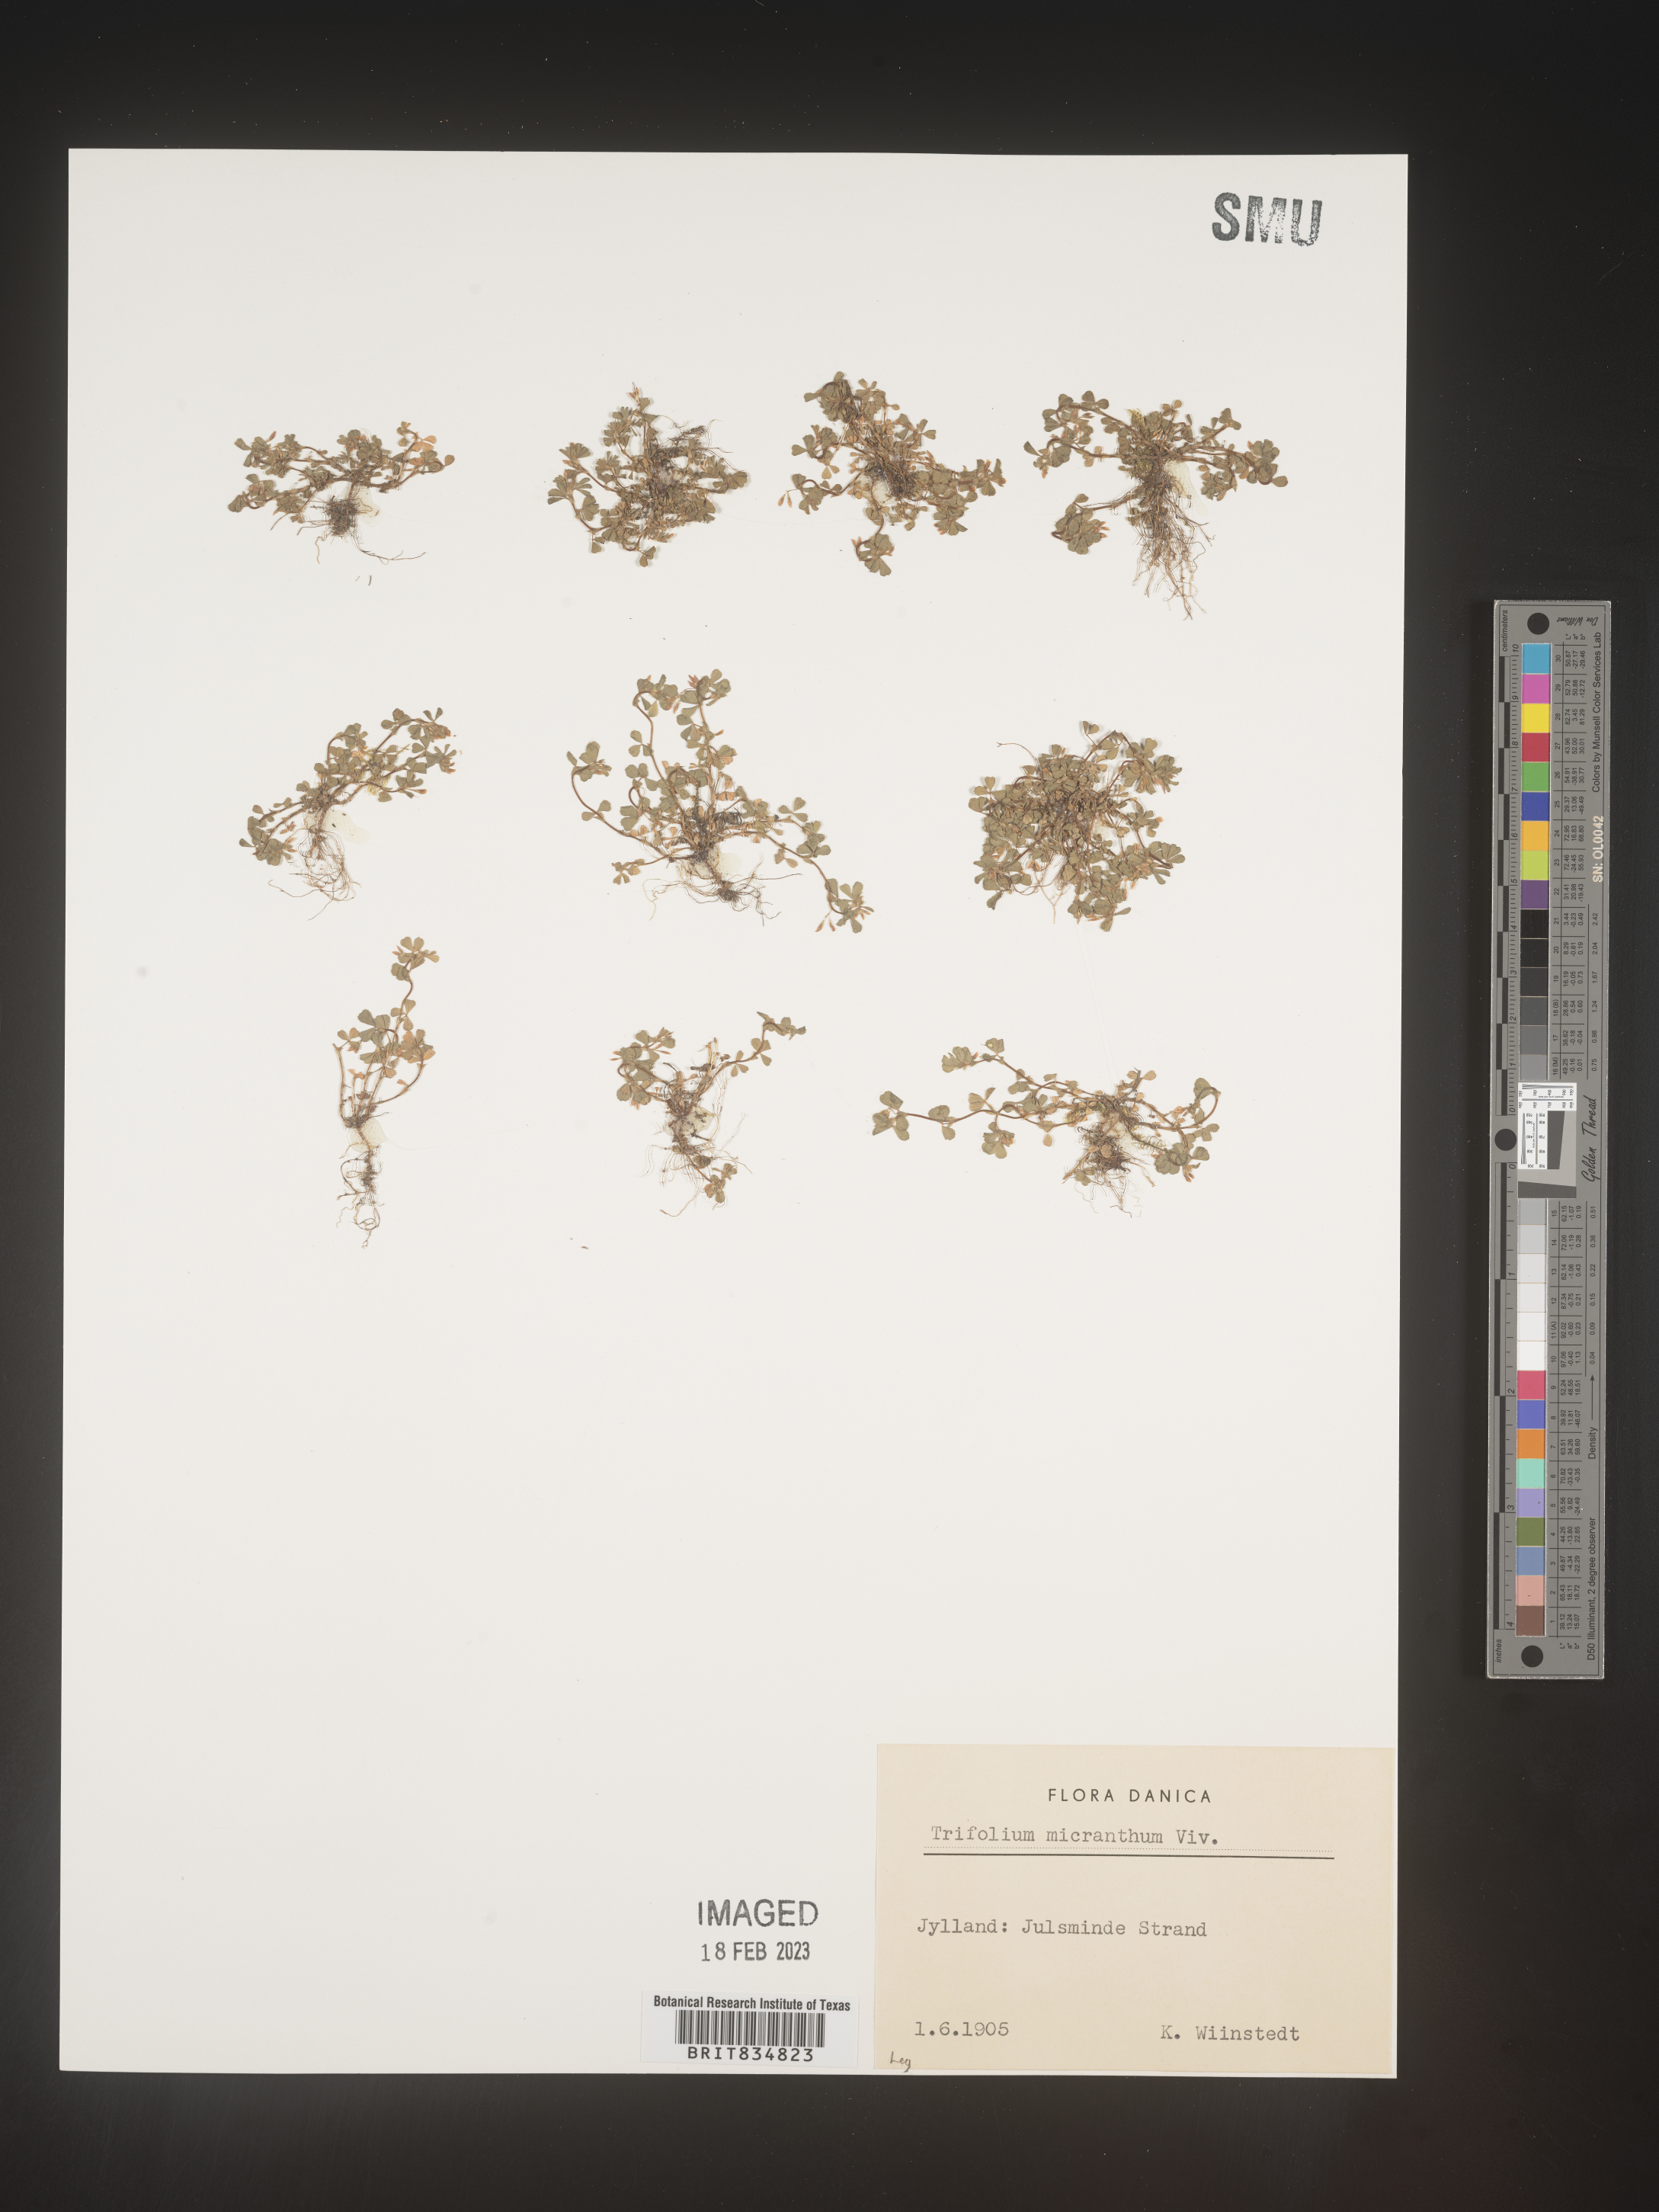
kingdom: Plantae
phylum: Tracheophyta
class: Magnoliopsida
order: Fabales
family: Fabaceae
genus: Trifolium
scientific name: Trifolium
